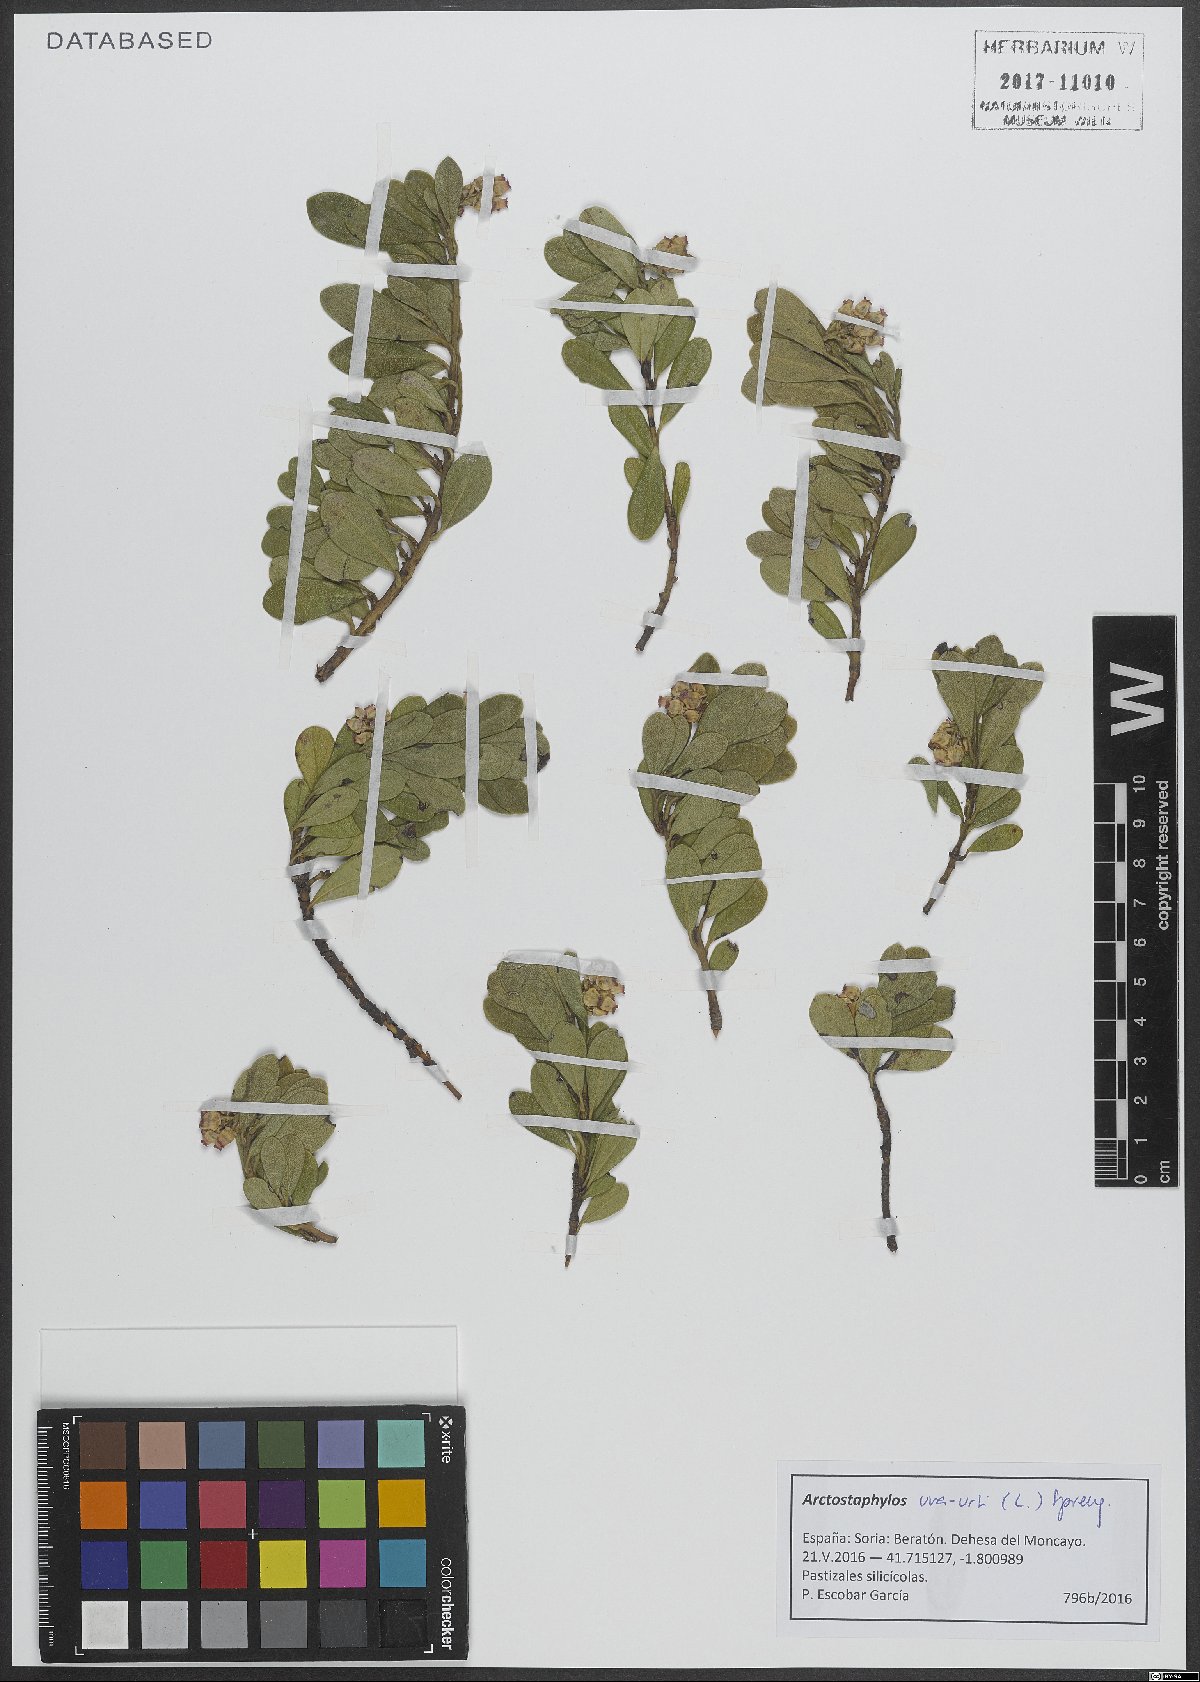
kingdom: Plantae
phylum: Tracheophyta
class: Magnoliopsida
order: Ericales
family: Ericaceae
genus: Arctostaphylos
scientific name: Arctostaphylos uva-ursi
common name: Bearberry
